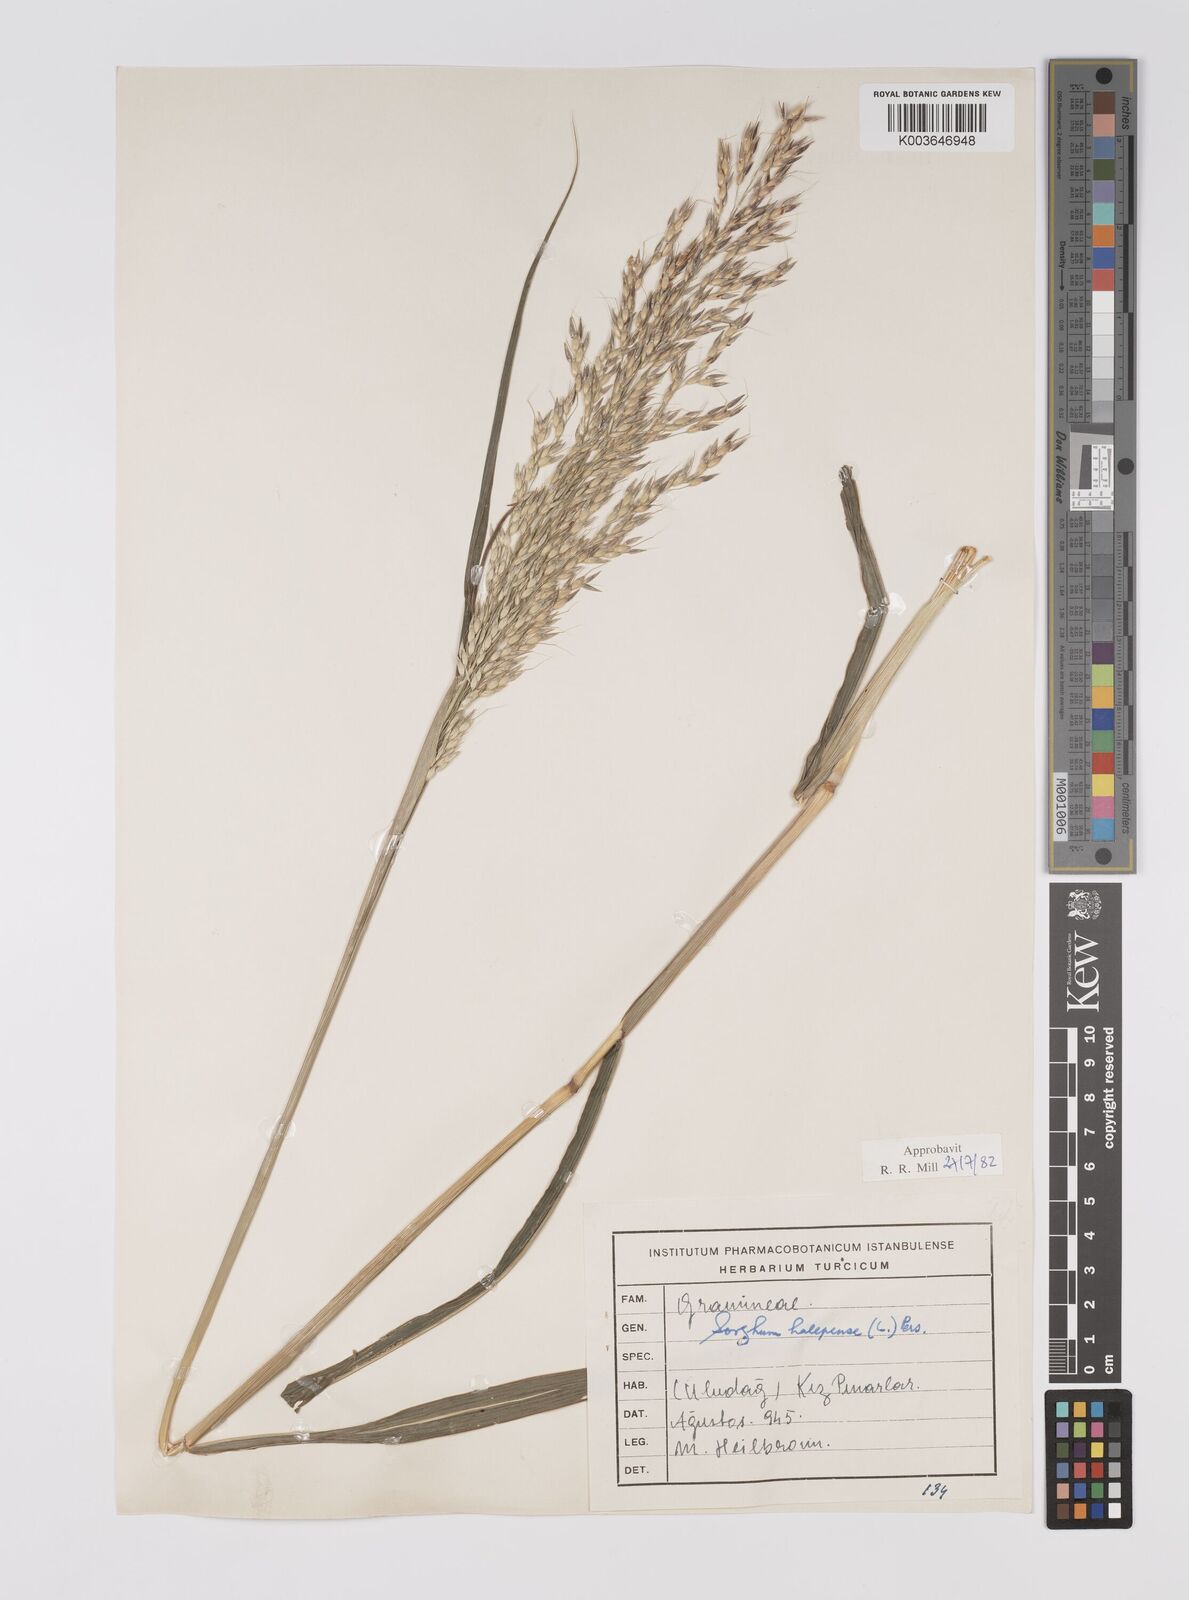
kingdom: Plantae
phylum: Tracheophyta
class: Liliopsida
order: Poales
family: Poaceae
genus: Sorghum
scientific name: Sorghum halepense
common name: Johnson-grass
